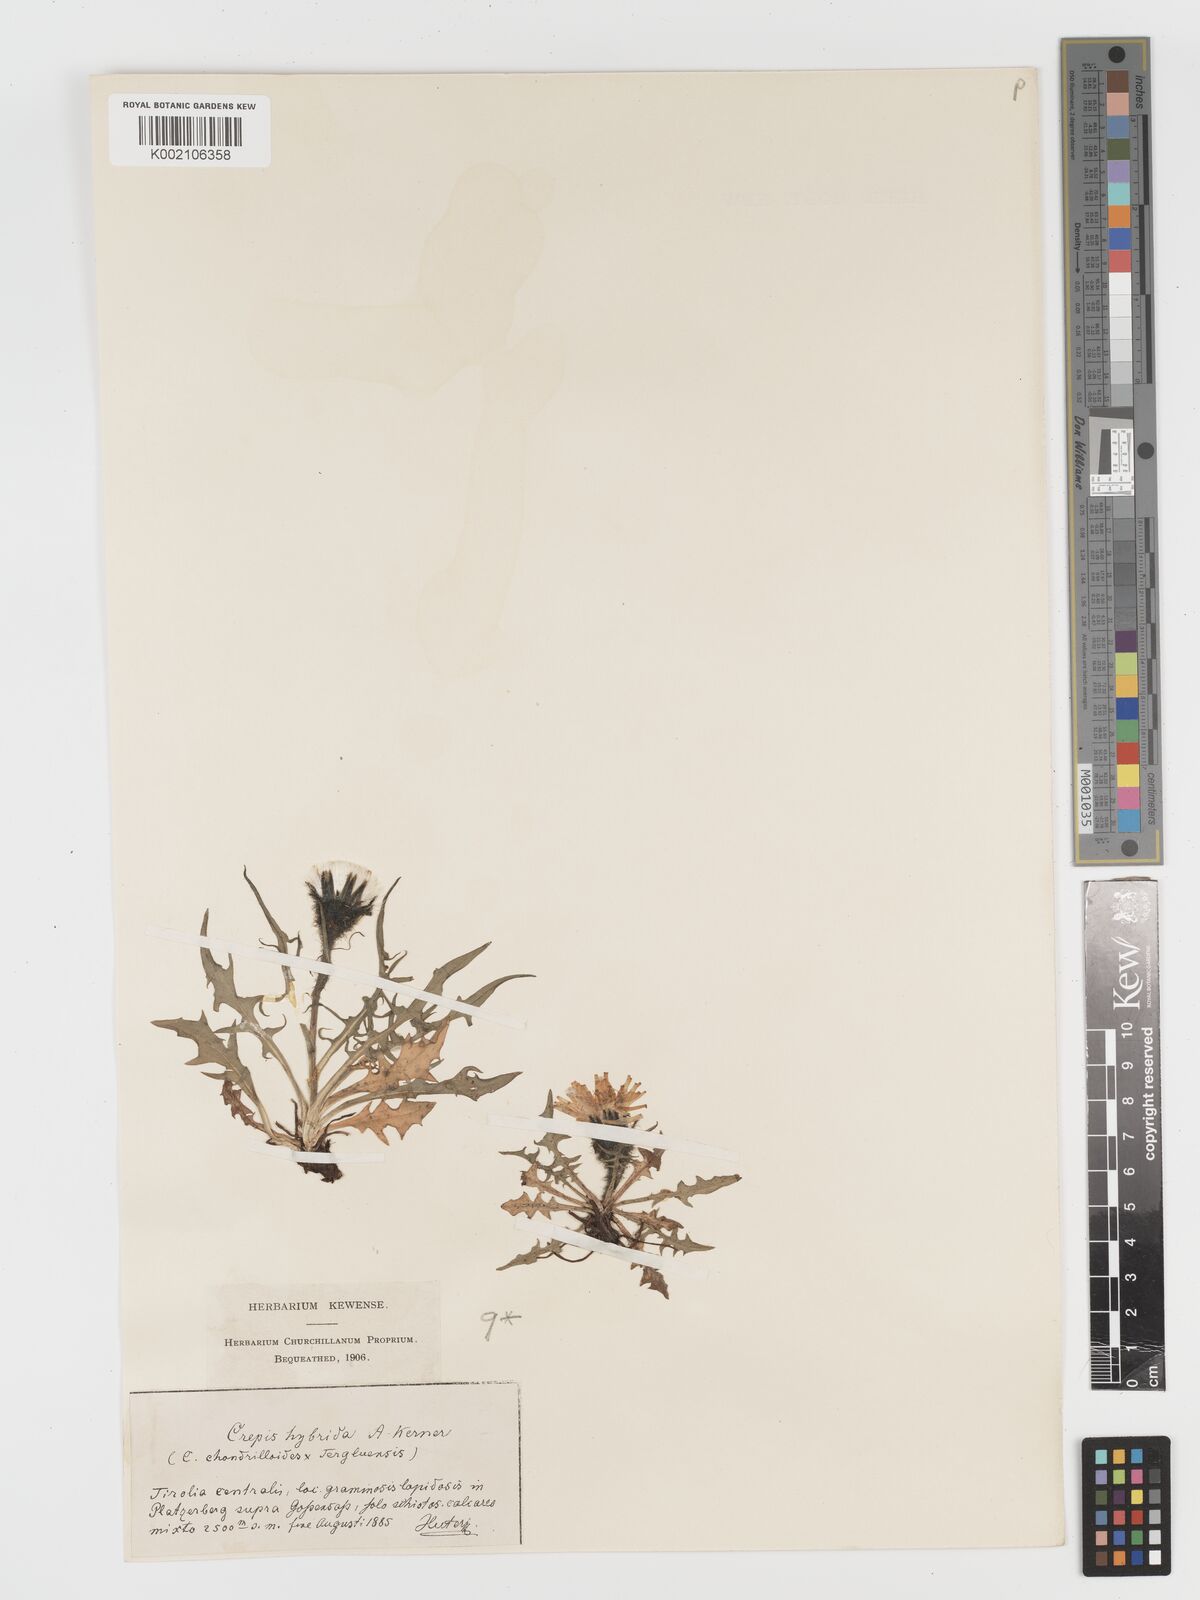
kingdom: Plantae
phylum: Tracheophyta
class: Magnoliopsida
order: Asterales
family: Asteraceae
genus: Crepis
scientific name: Crepis hybrida
